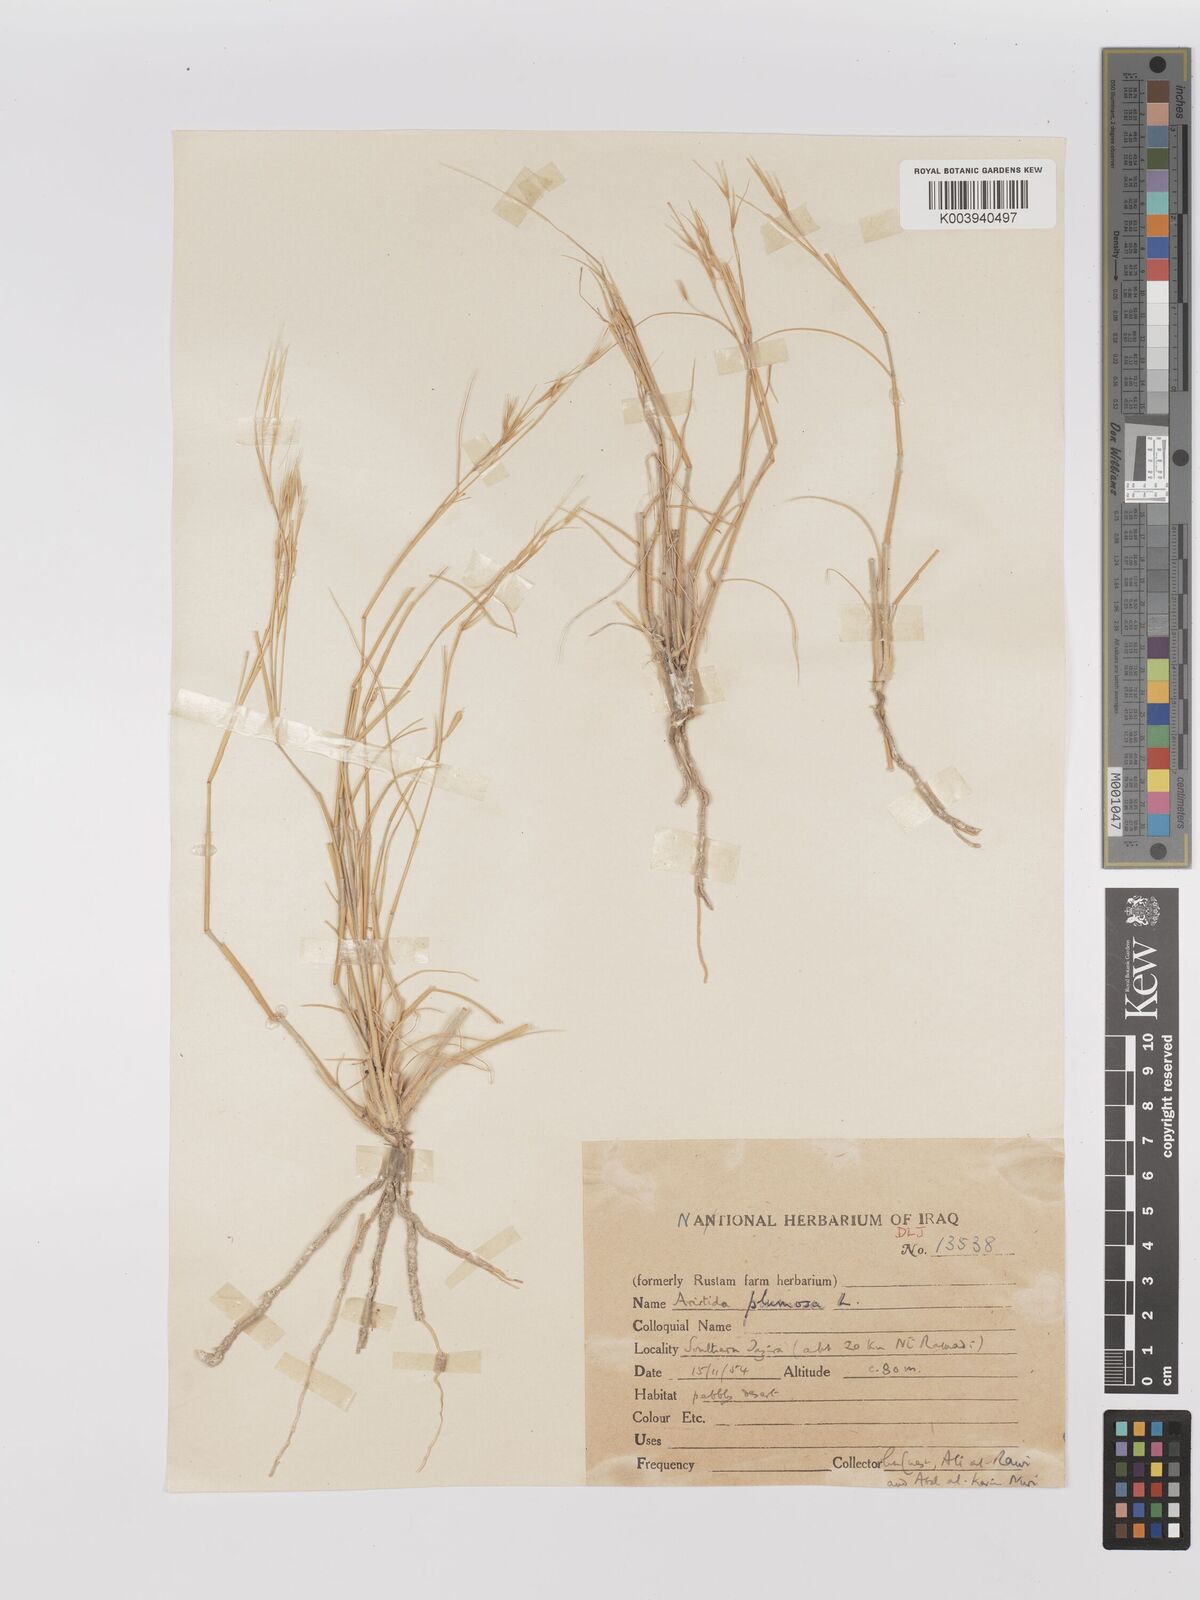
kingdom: Plantae
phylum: Tracheophyta
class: Liliopsida
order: Poales
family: Poaceae
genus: Stipagrostis
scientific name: Stipagrostis plumosa
